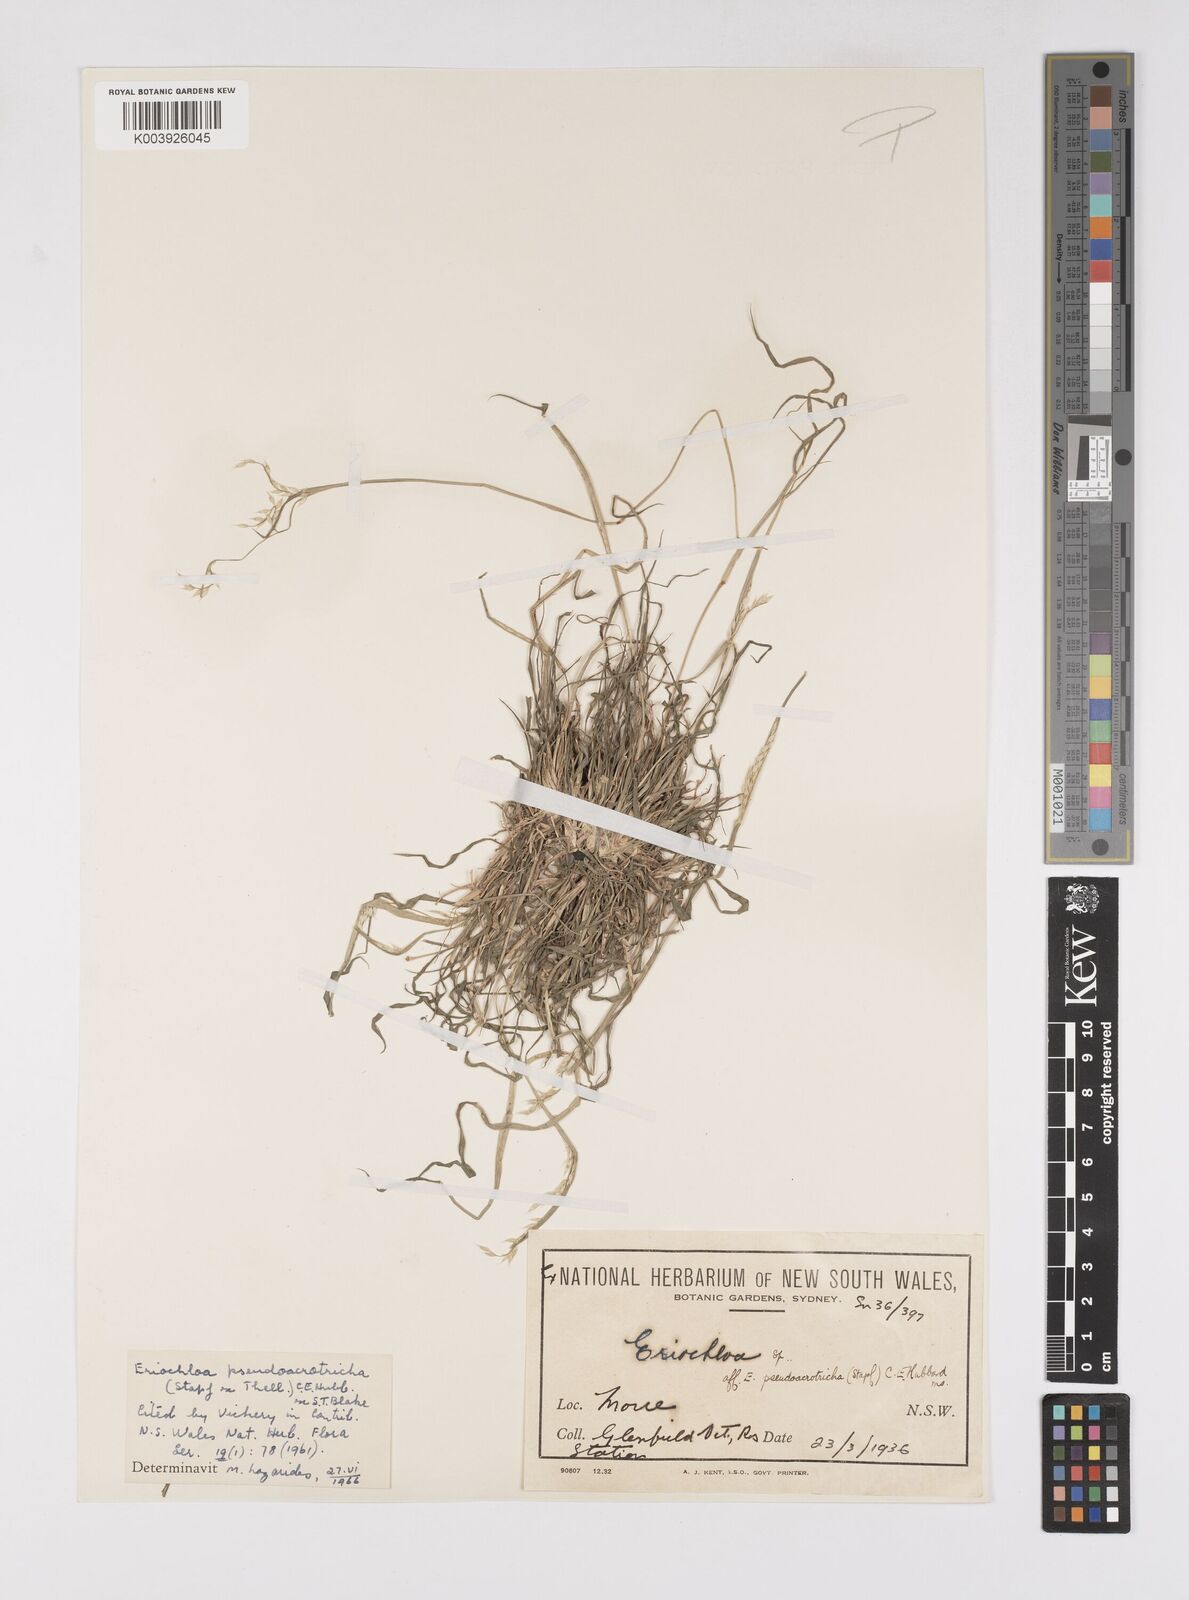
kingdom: Plantae
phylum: Tracheophyta
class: Liliopsida
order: Poales
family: Poaceae
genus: Eriochloa
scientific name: Eriochloa pseudoacrotricha
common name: Perennial cup-grass
